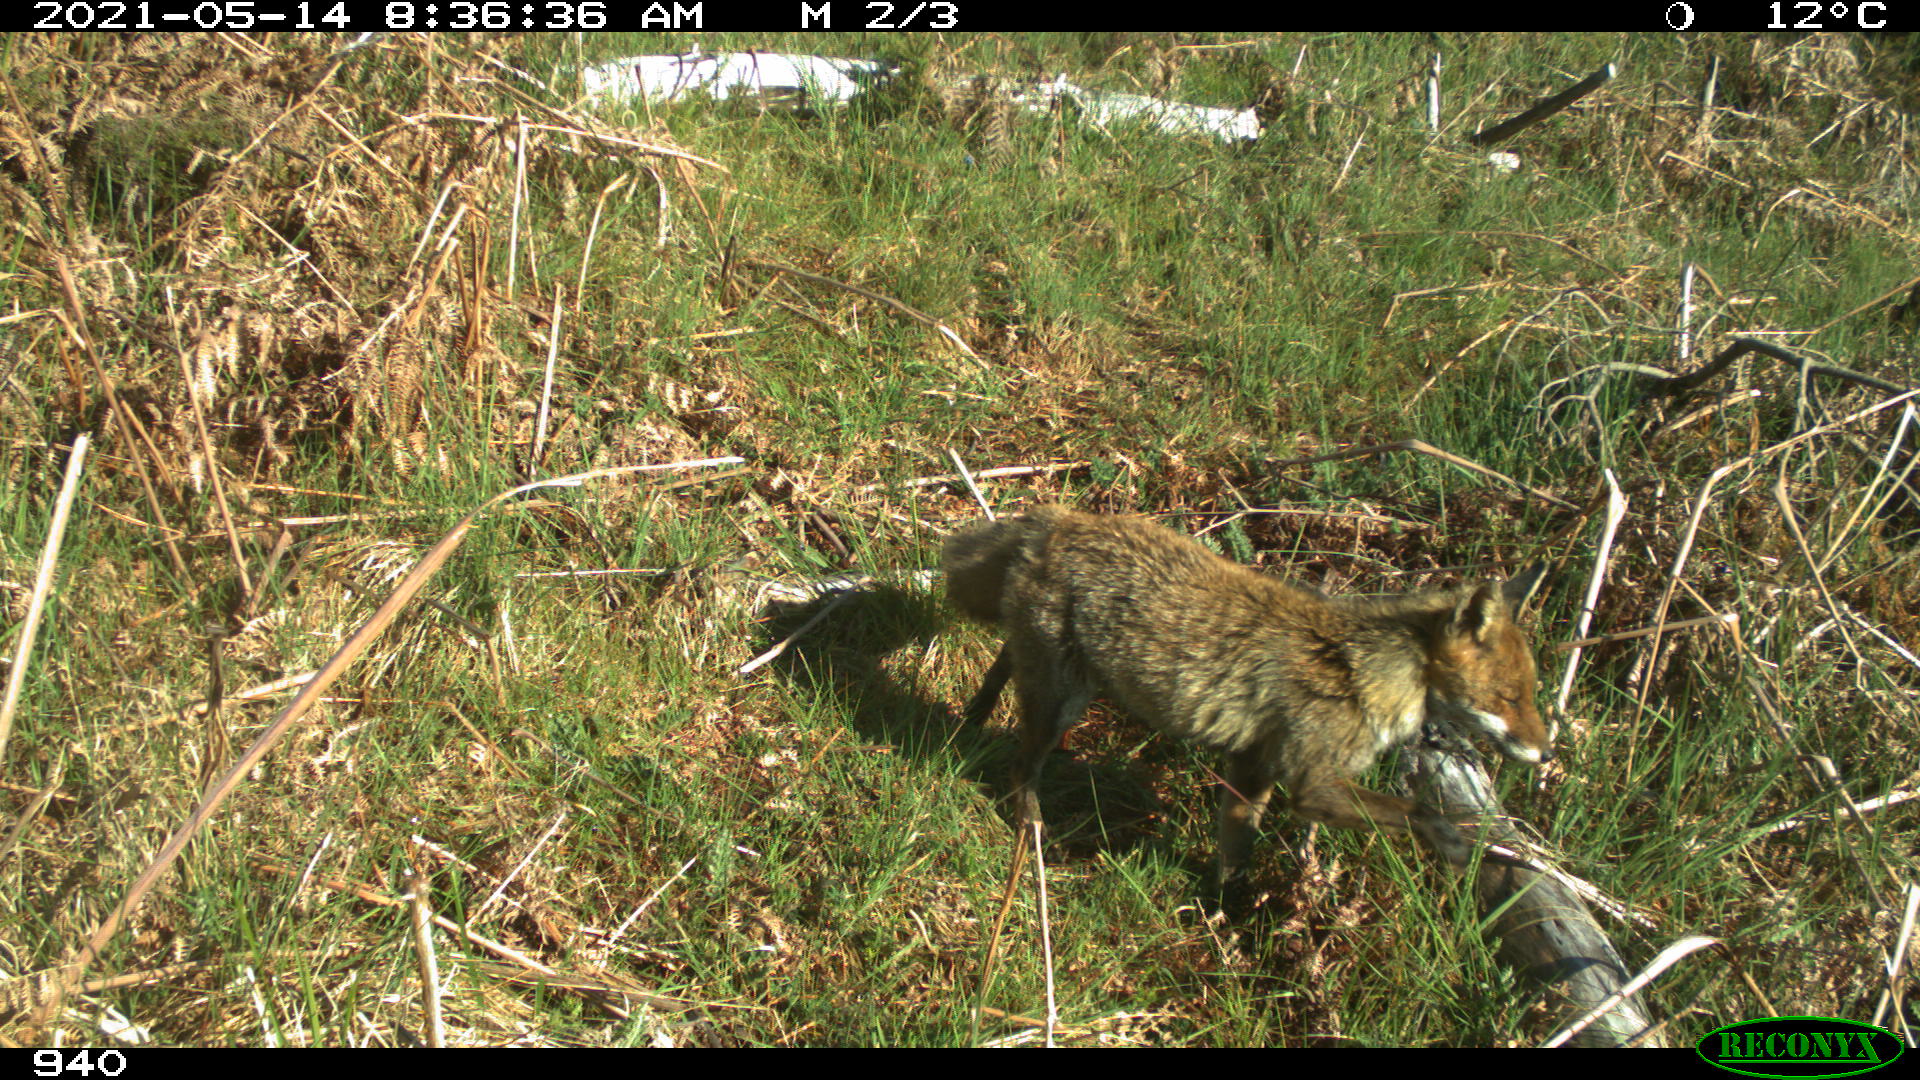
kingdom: Animalia
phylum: Chordata
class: Mammalia
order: Carnivora
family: Canidae
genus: Vulpes
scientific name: Vulpes vulpes
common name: Red fox
